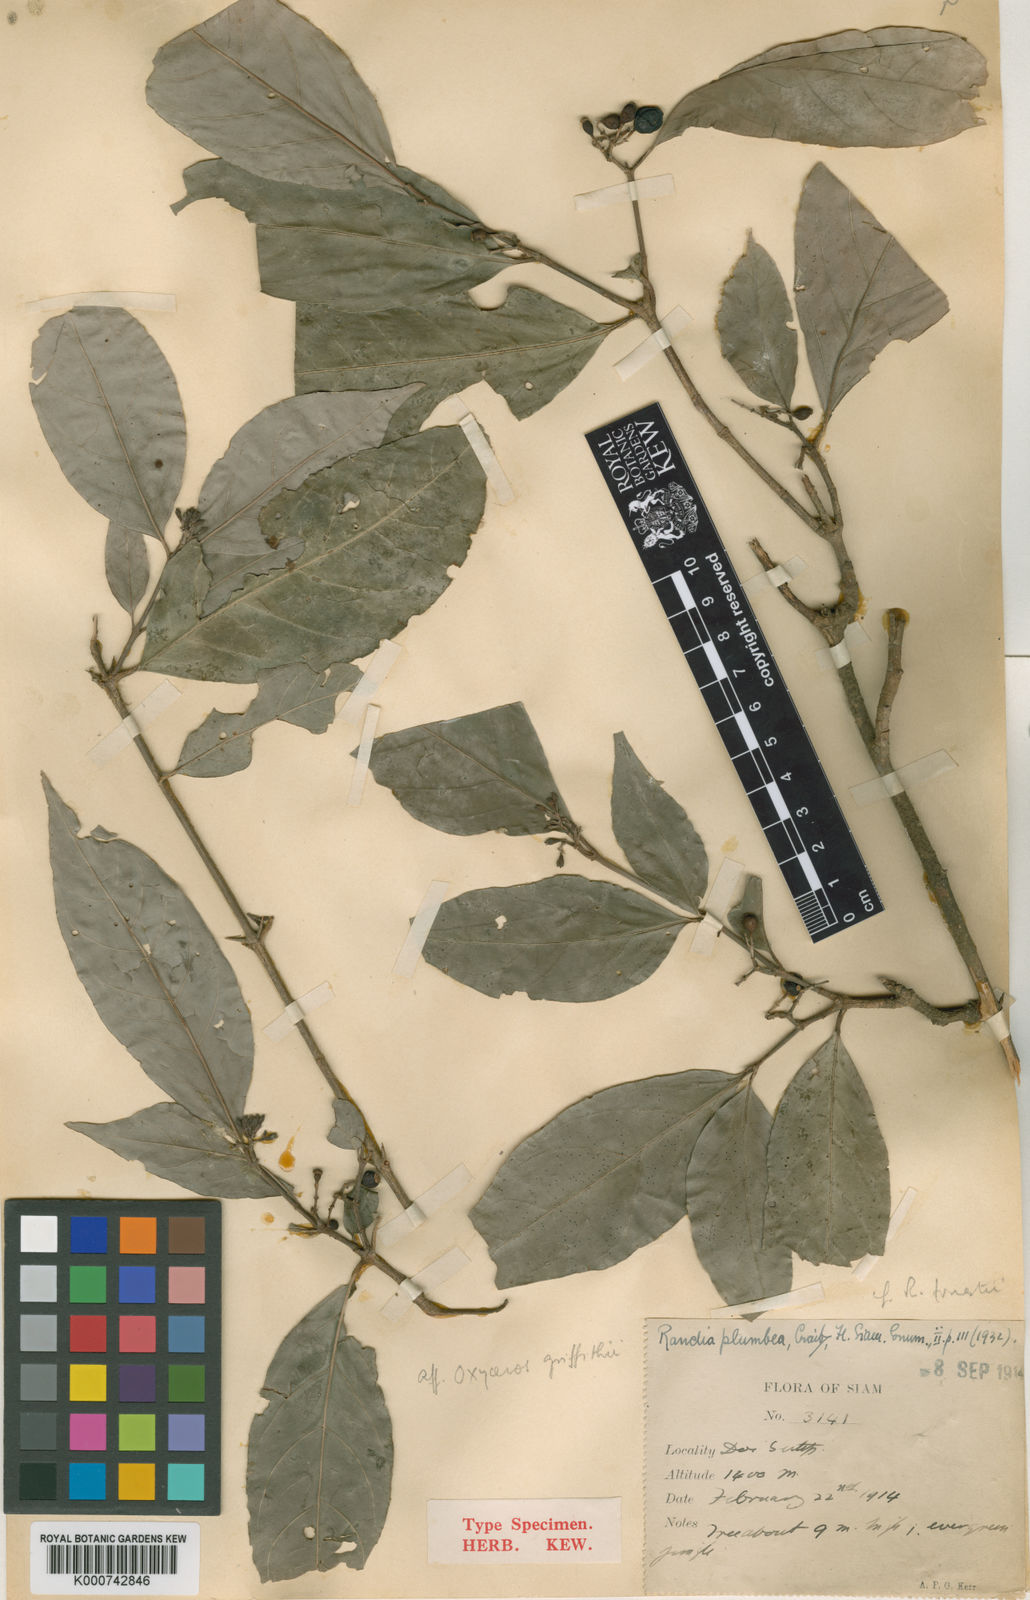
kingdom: Plantae
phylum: Tracheophyta
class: Magnoliopsida
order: Gentianales
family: Rubiaceae
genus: Benkara
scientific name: Benkara
